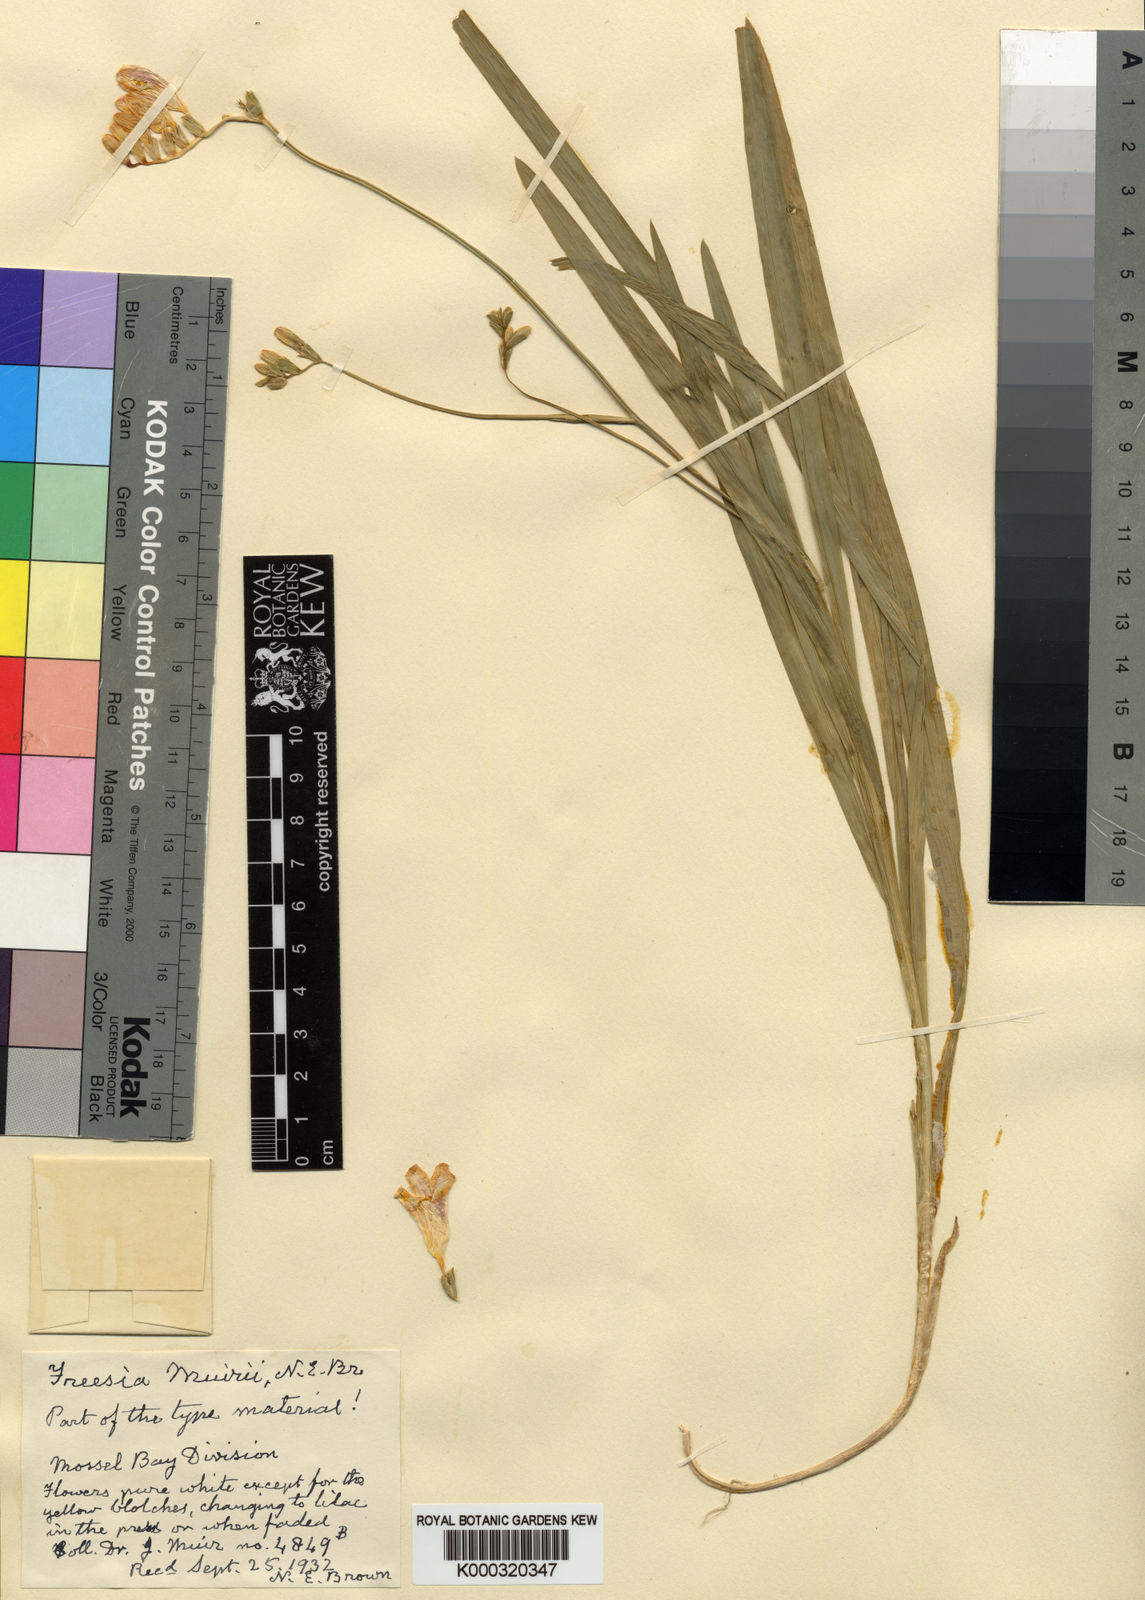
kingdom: Plantae
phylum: Tracheophyta
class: Liliopsida
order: Asparagales
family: Iridaceae
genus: Freesia
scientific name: Freesia leichtlinii
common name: Freesia
